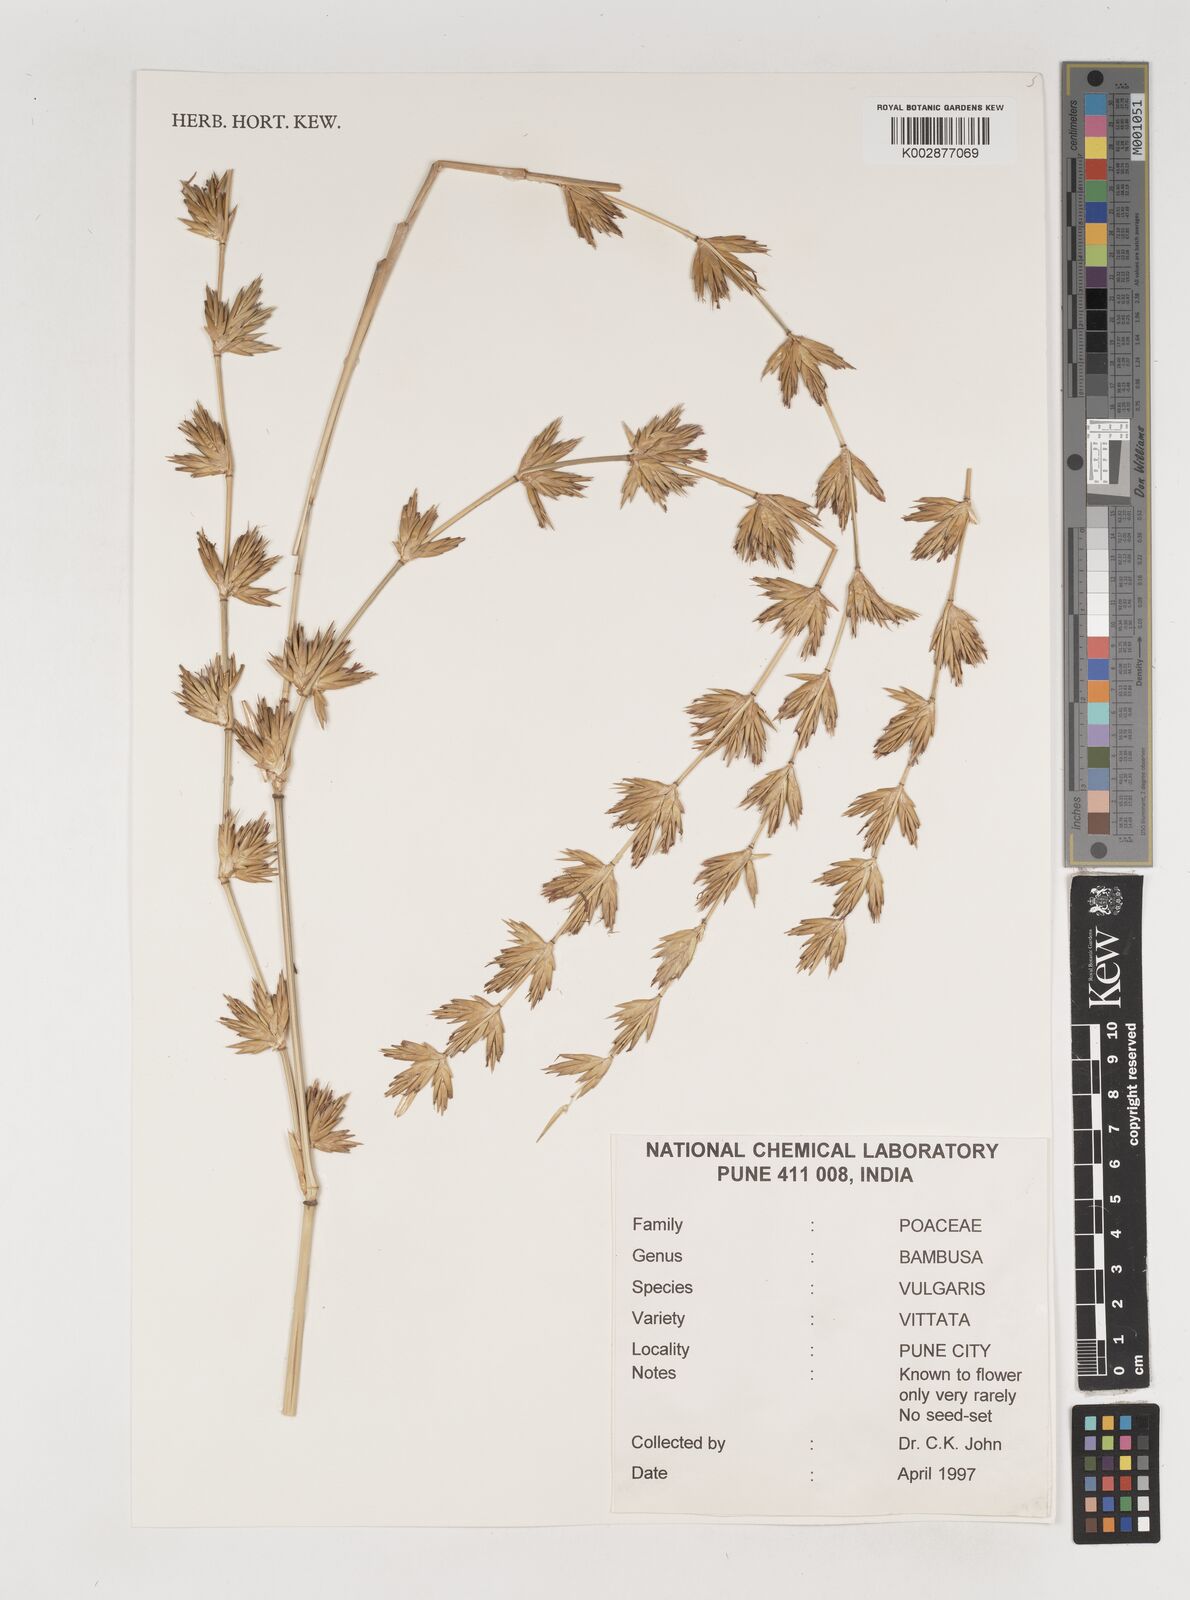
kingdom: Plantae
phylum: Tracheophyta
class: Liliopsida
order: Poales
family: Poaceae
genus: Bambusa
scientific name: Bambusa
